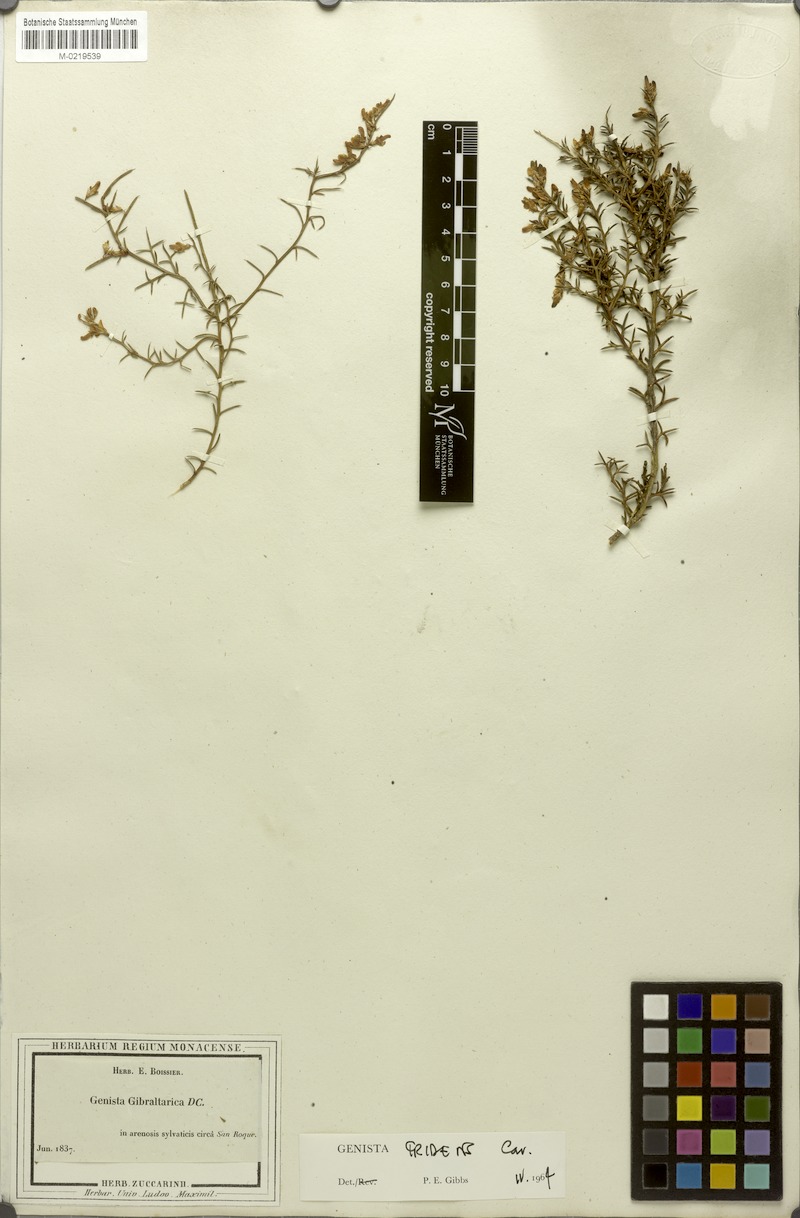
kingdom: Plantae
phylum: Tracheophyta
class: Magnoliopsida
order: Fabales
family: Fabaceae
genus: Genista
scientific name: Genista tridens
